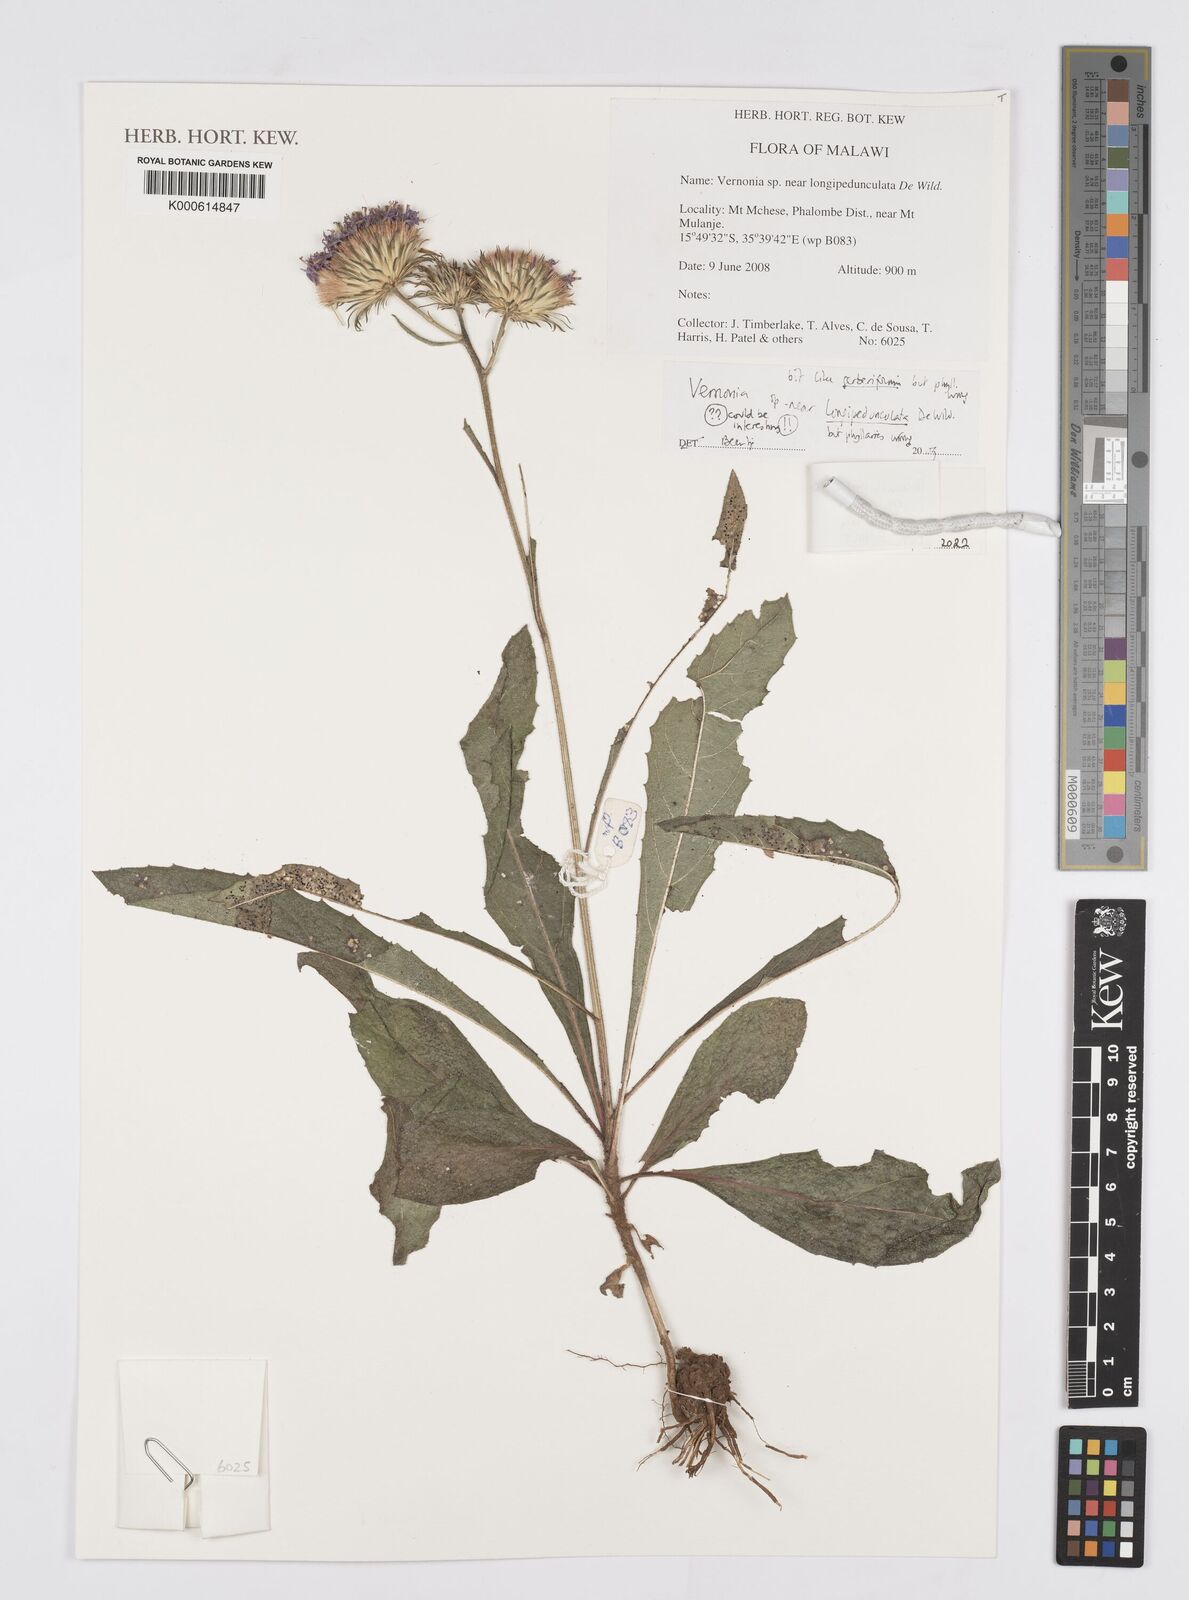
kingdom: Plantae
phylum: Tracheophyta
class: Magnoliopsida
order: Asterales
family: Asteraceae
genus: Vernonia
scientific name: Vernonia
